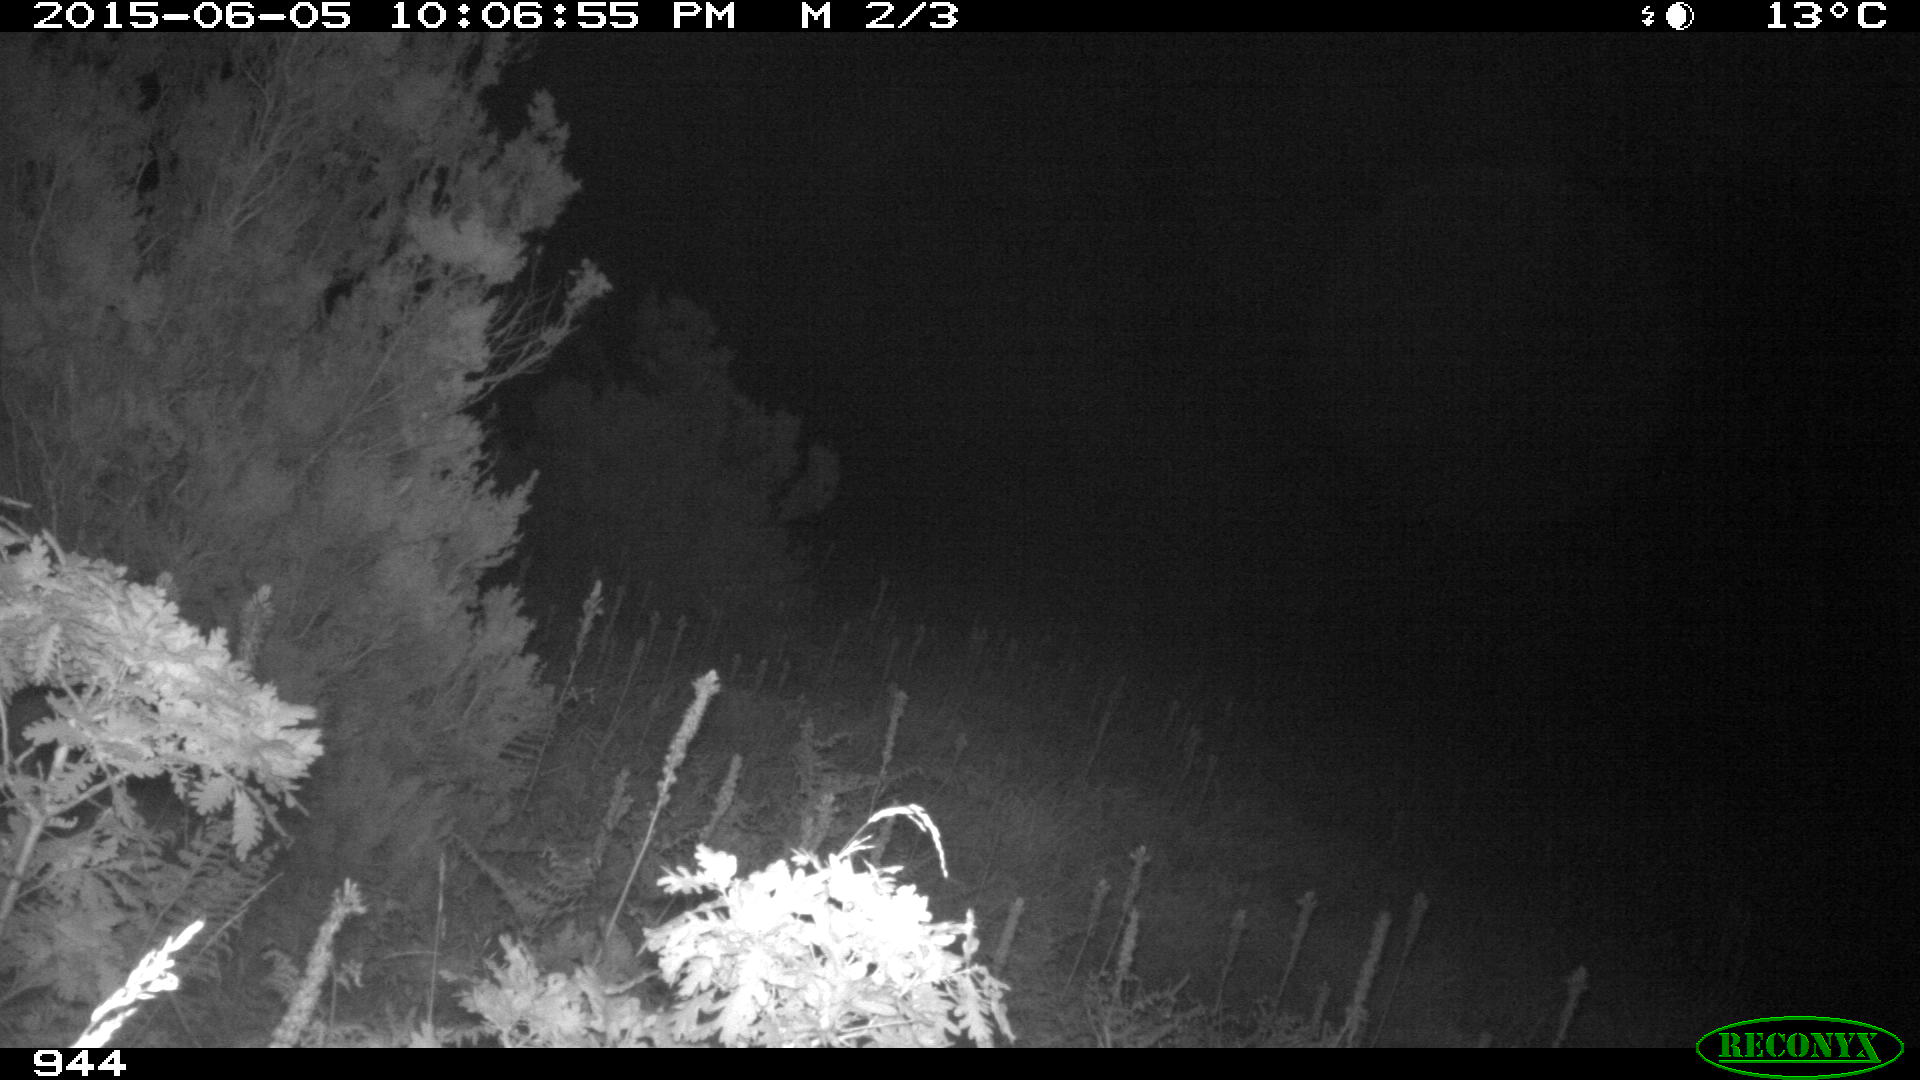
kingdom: Animalia
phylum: Chordata
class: Mammalia
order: Artiodactyla
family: Cervidae
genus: Capreolus
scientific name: Capreolus capreolus
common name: Western roe deer
